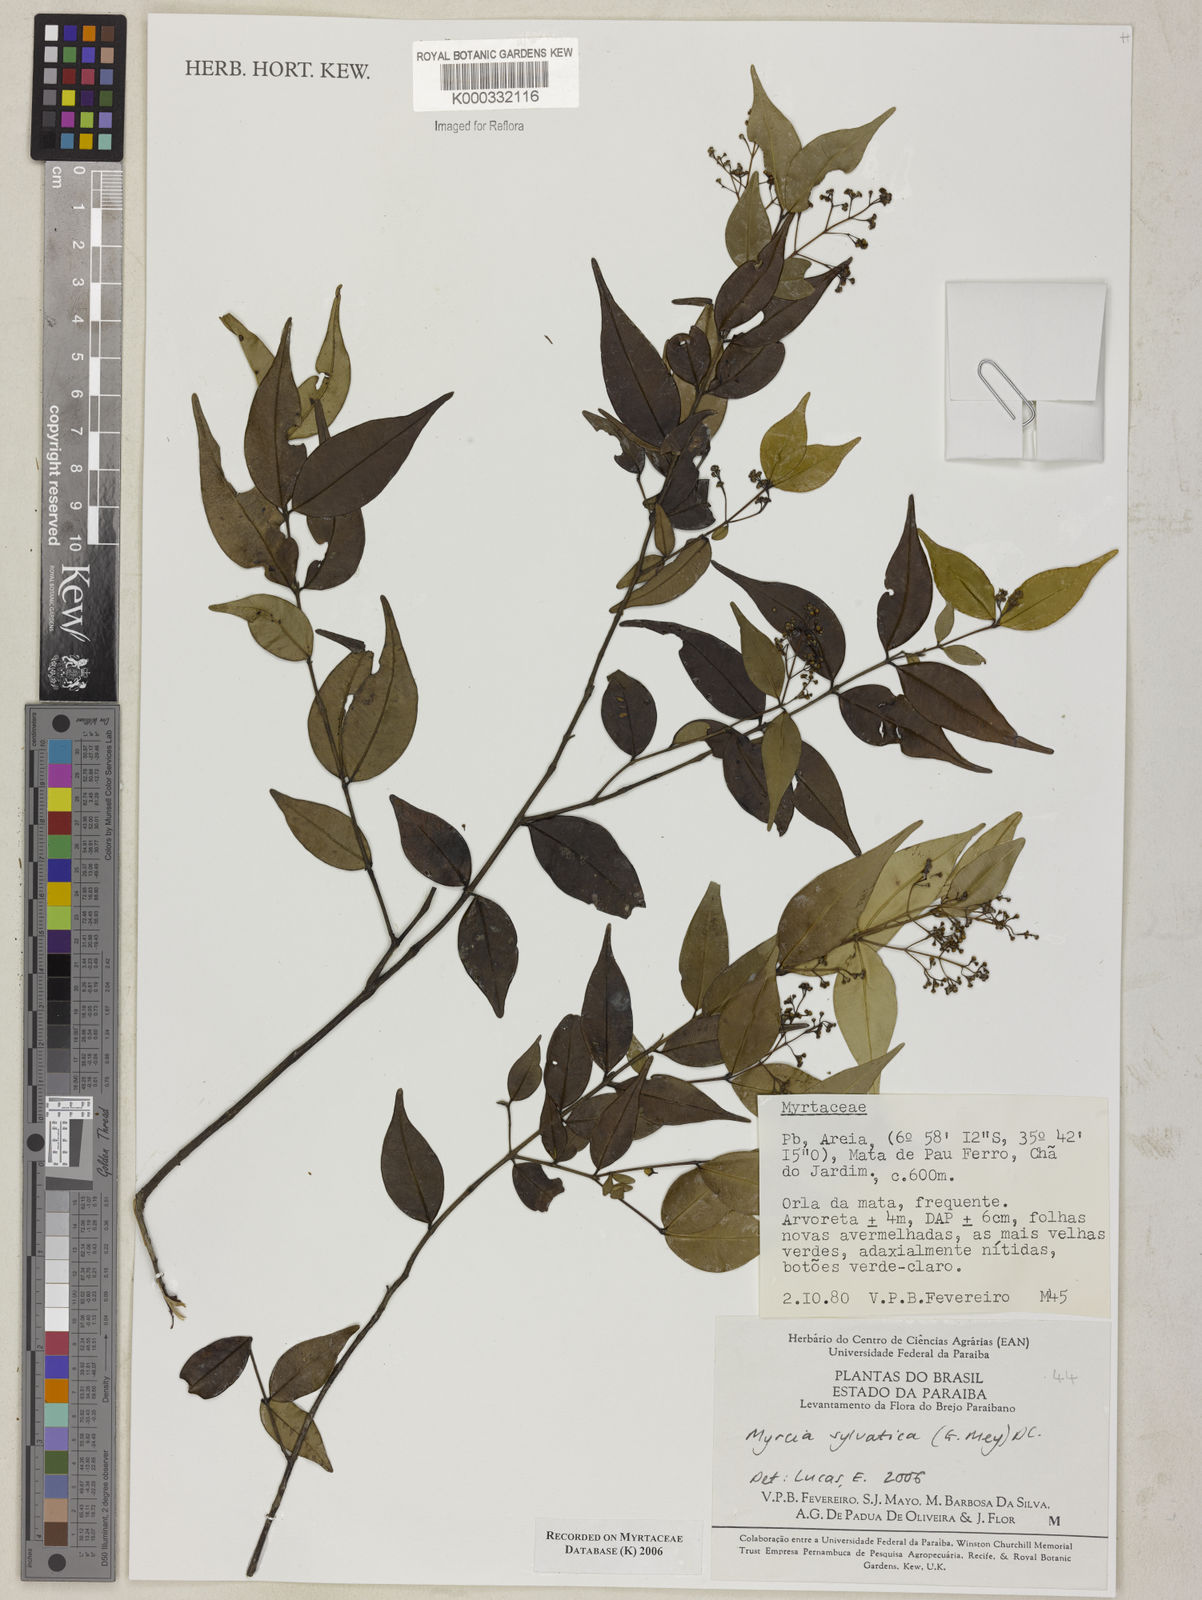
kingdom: Plantae
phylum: Tracheophyta
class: Magnoliopsida
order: Myrtales
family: Myrtaceae
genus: Myrcia
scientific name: Myrcia sylvatica
